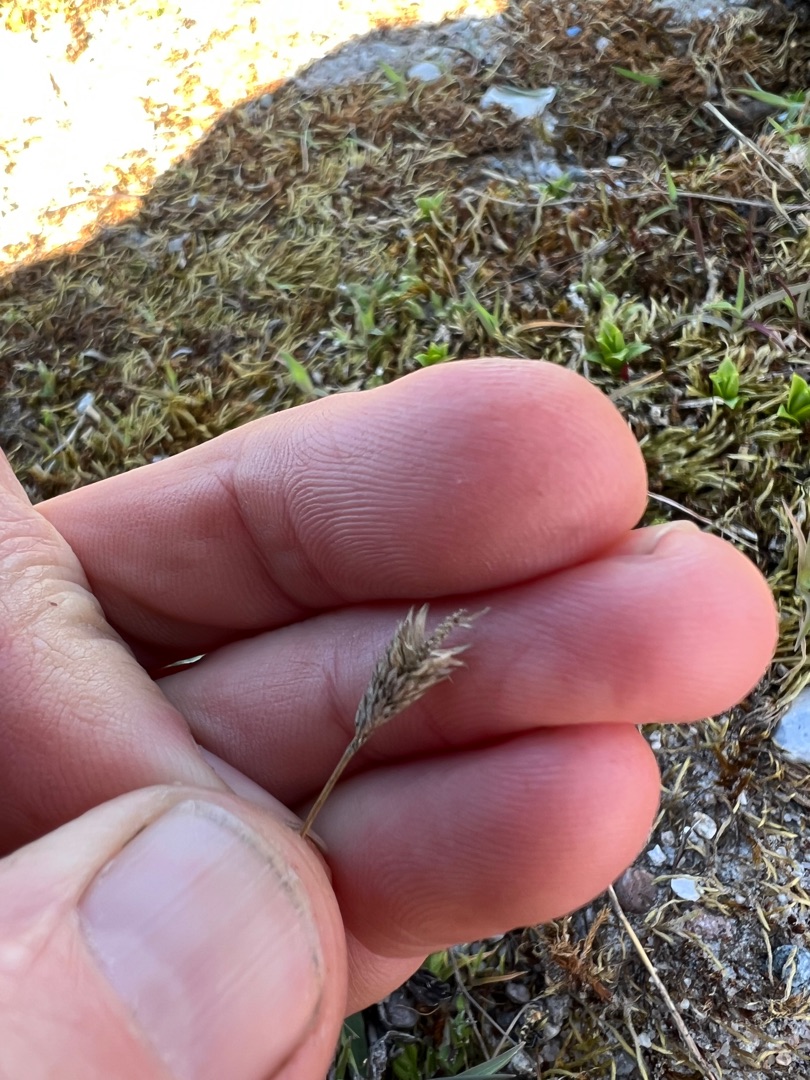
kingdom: Plantae
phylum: Tracheophyta
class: Liliopsida
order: Poales
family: Poaceae
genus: Phleum
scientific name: Phleum arenarium
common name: Sand-rottehale
